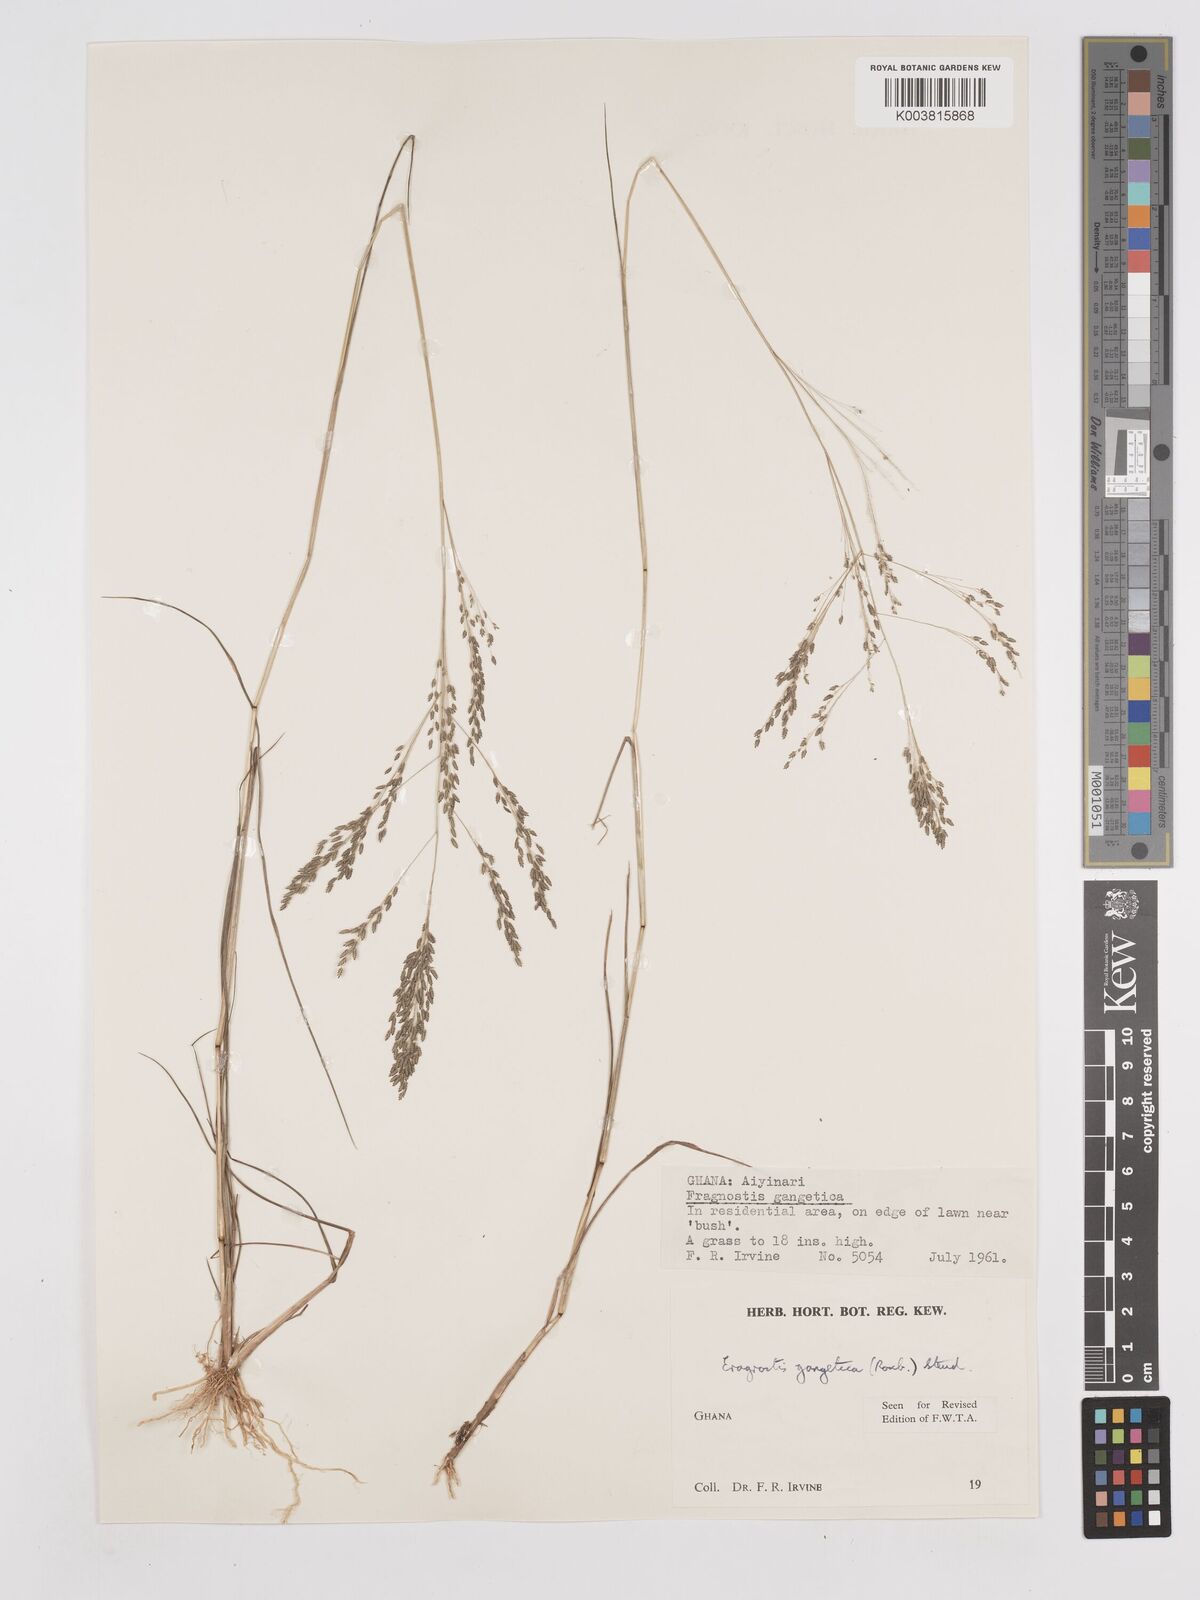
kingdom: Plantae
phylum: Tracheophyta
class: Liliopsida
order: Poales
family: Poaceae
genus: Eragrostis
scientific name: Eragrostis gangetica
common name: Slimflower lovegrass
